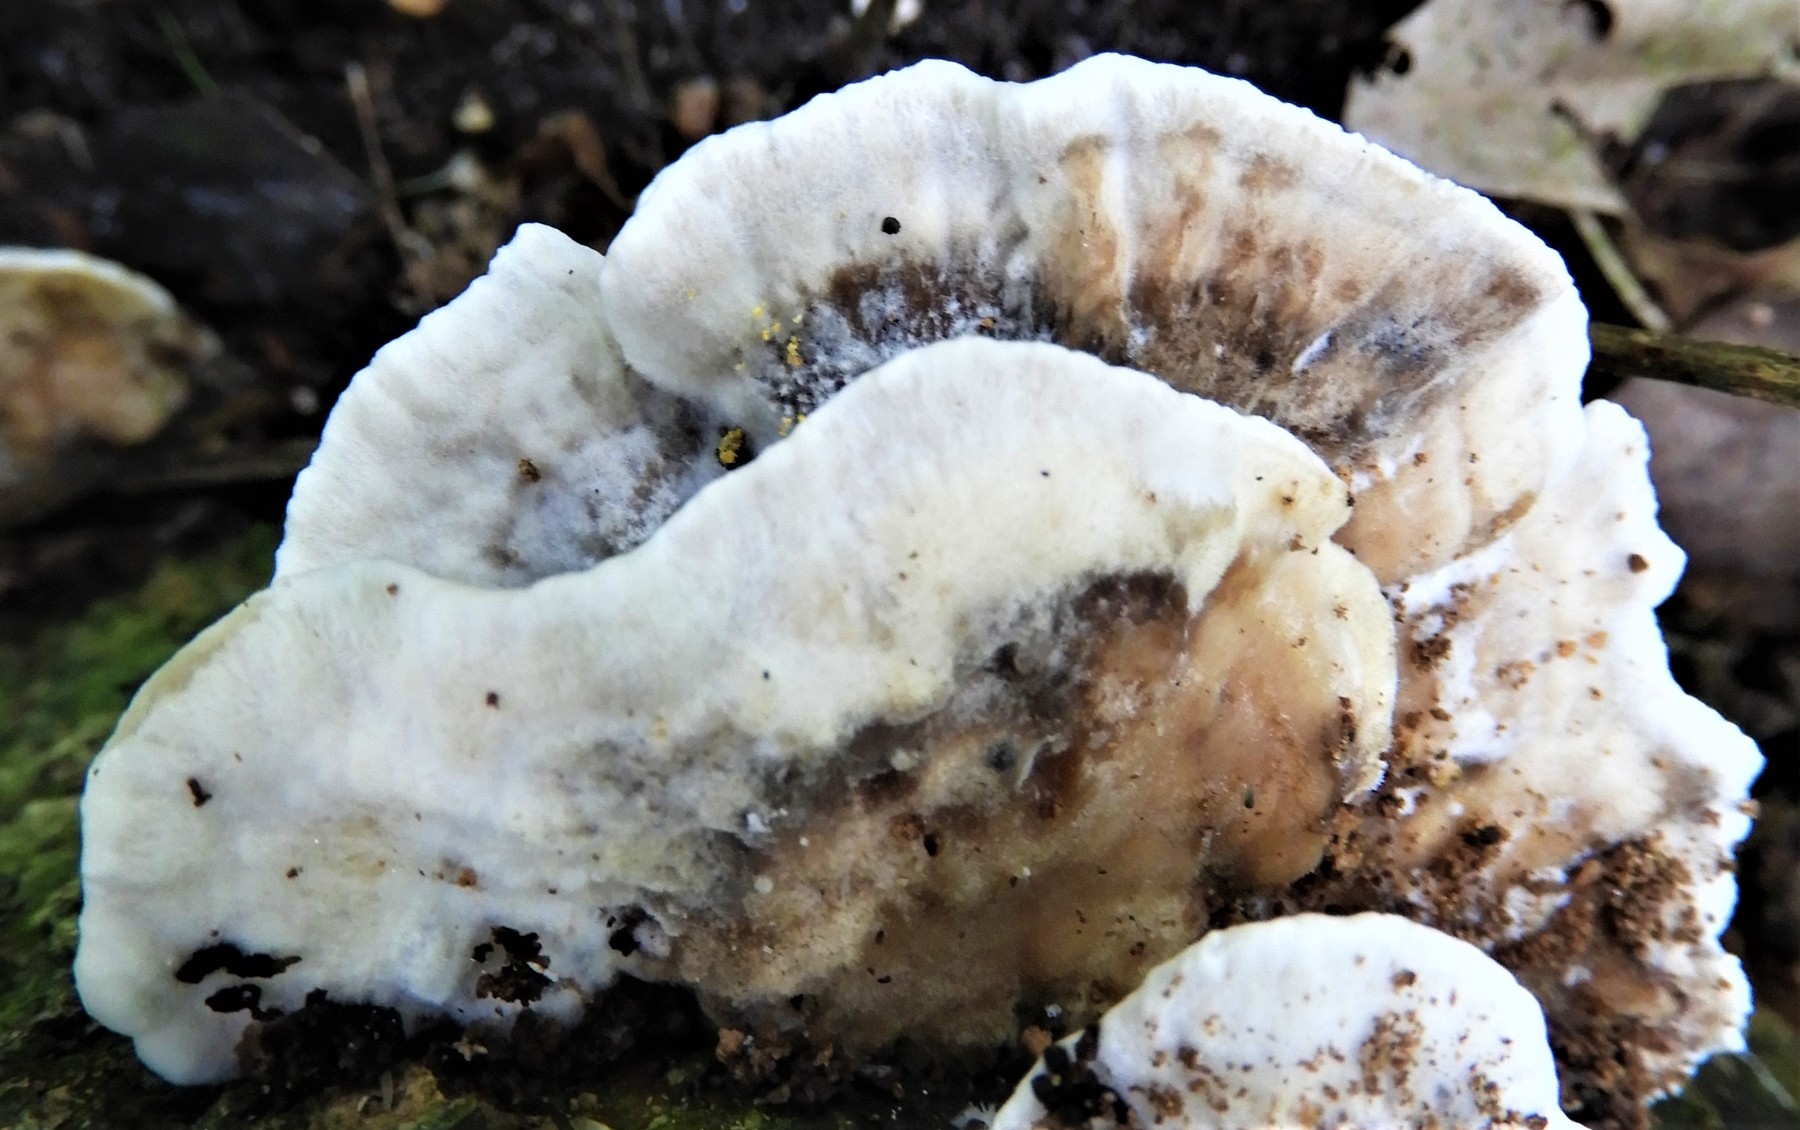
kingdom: Fungi
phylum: Basidiomycota
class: Agaricomycetes
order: Polyporales
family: Phanerochaetaceae
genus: Bjerkandera
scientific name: Bjerkandera adusta
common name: sveden sodporesvamp
